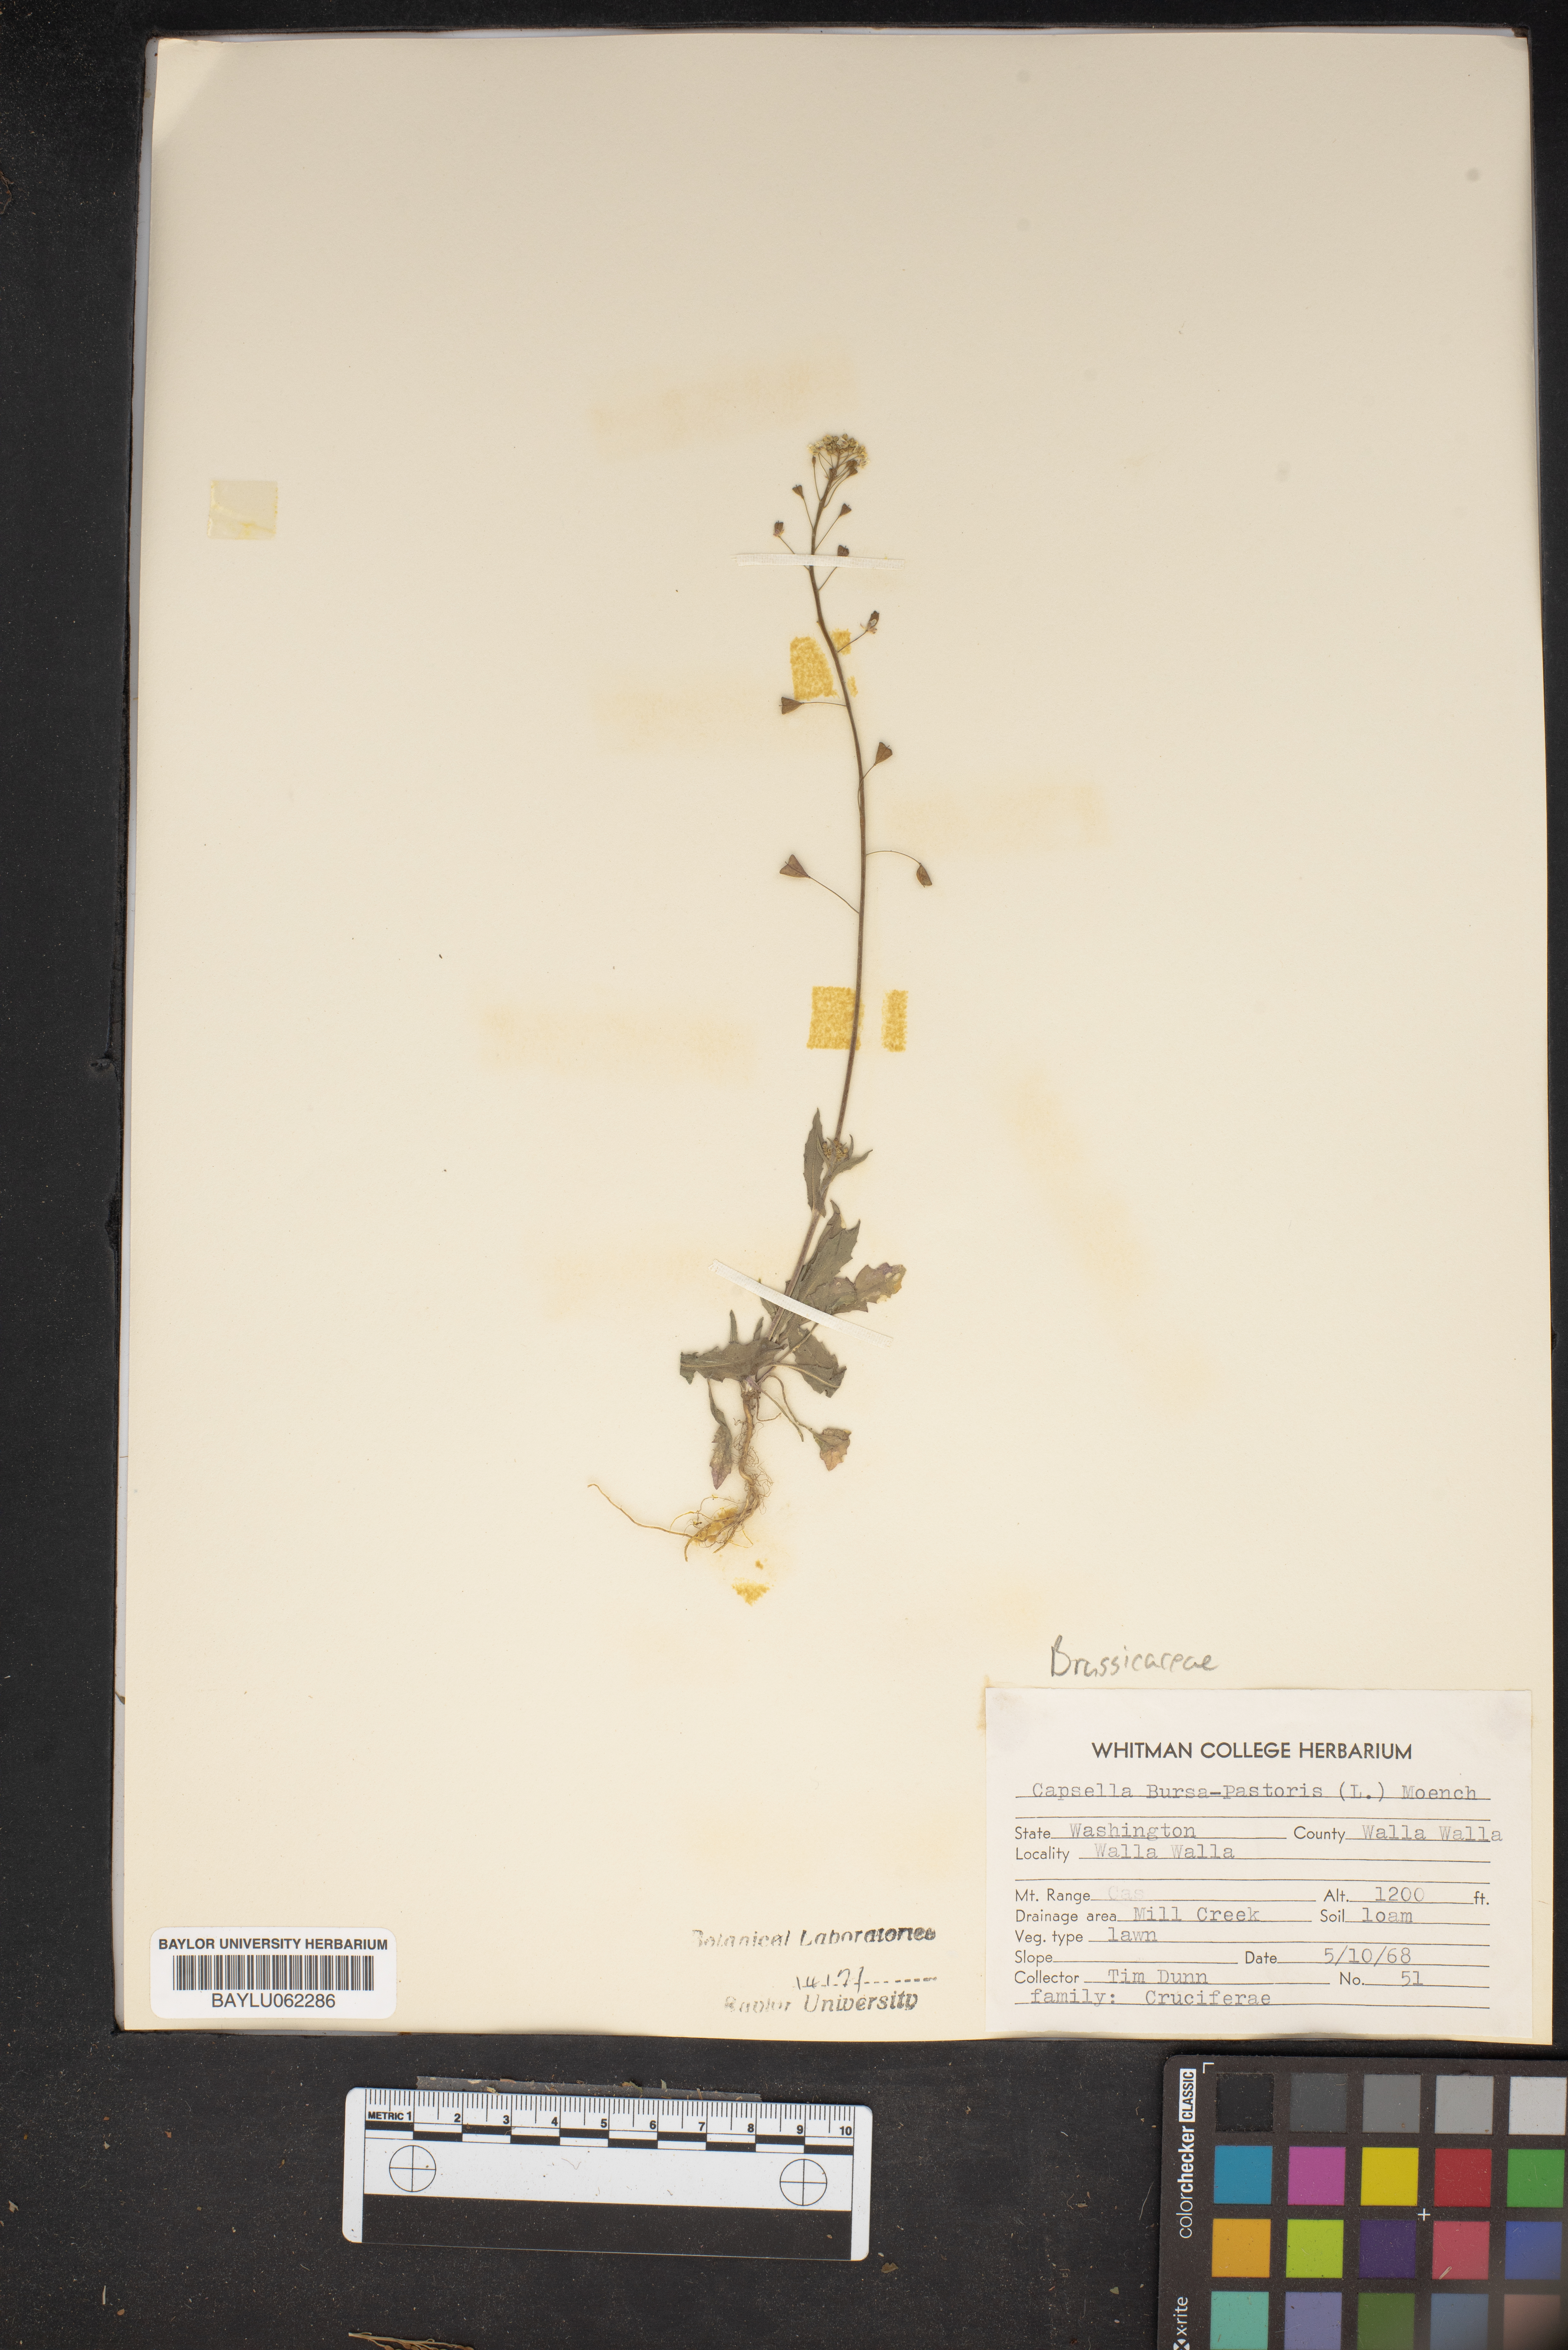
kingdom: Plantae
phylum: Tracheophyta
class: Magnoliopsida
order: Brassicales
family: Brassicaceae
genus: Capsella
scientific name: Capsella bursa-pastoris
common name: Shepherd's purse
